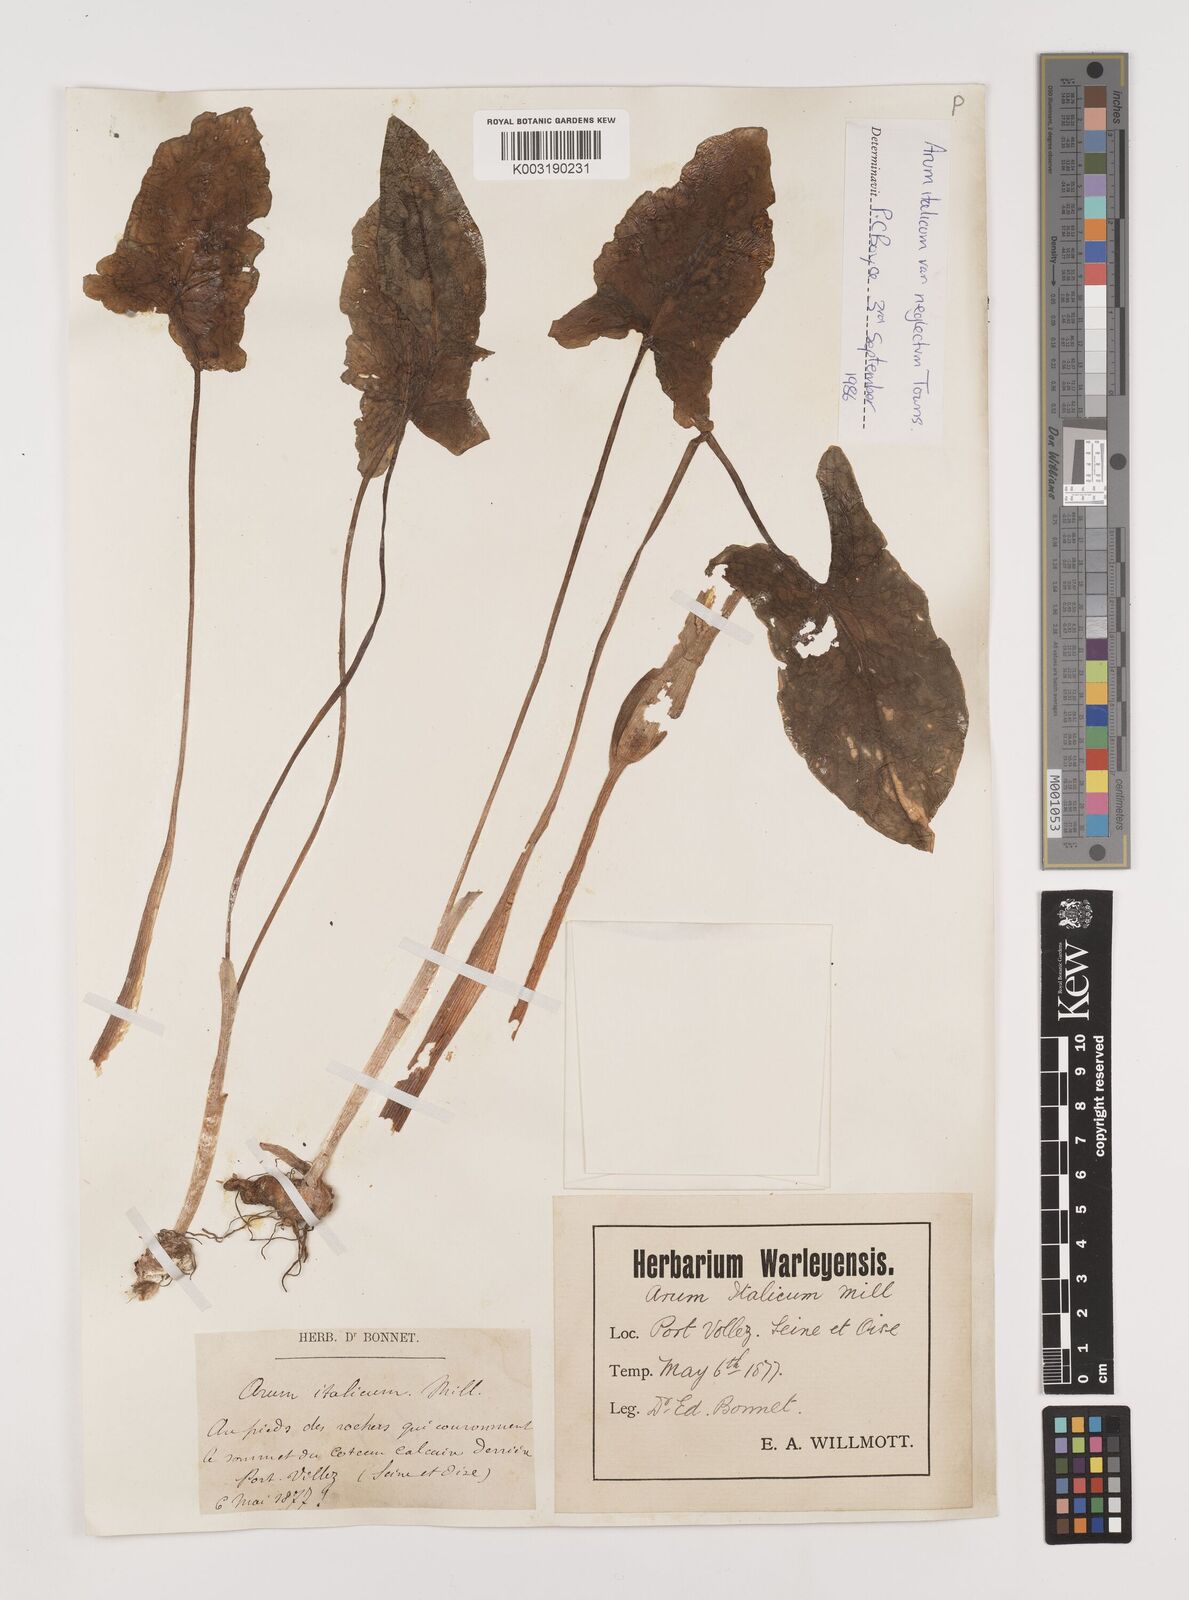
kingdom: Plantae
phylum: Tracheophyta
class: Liliopsida
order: Alismatales
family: Araceae
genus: Arum
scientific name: Arum italicum
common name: Italian lords-and-ladies
